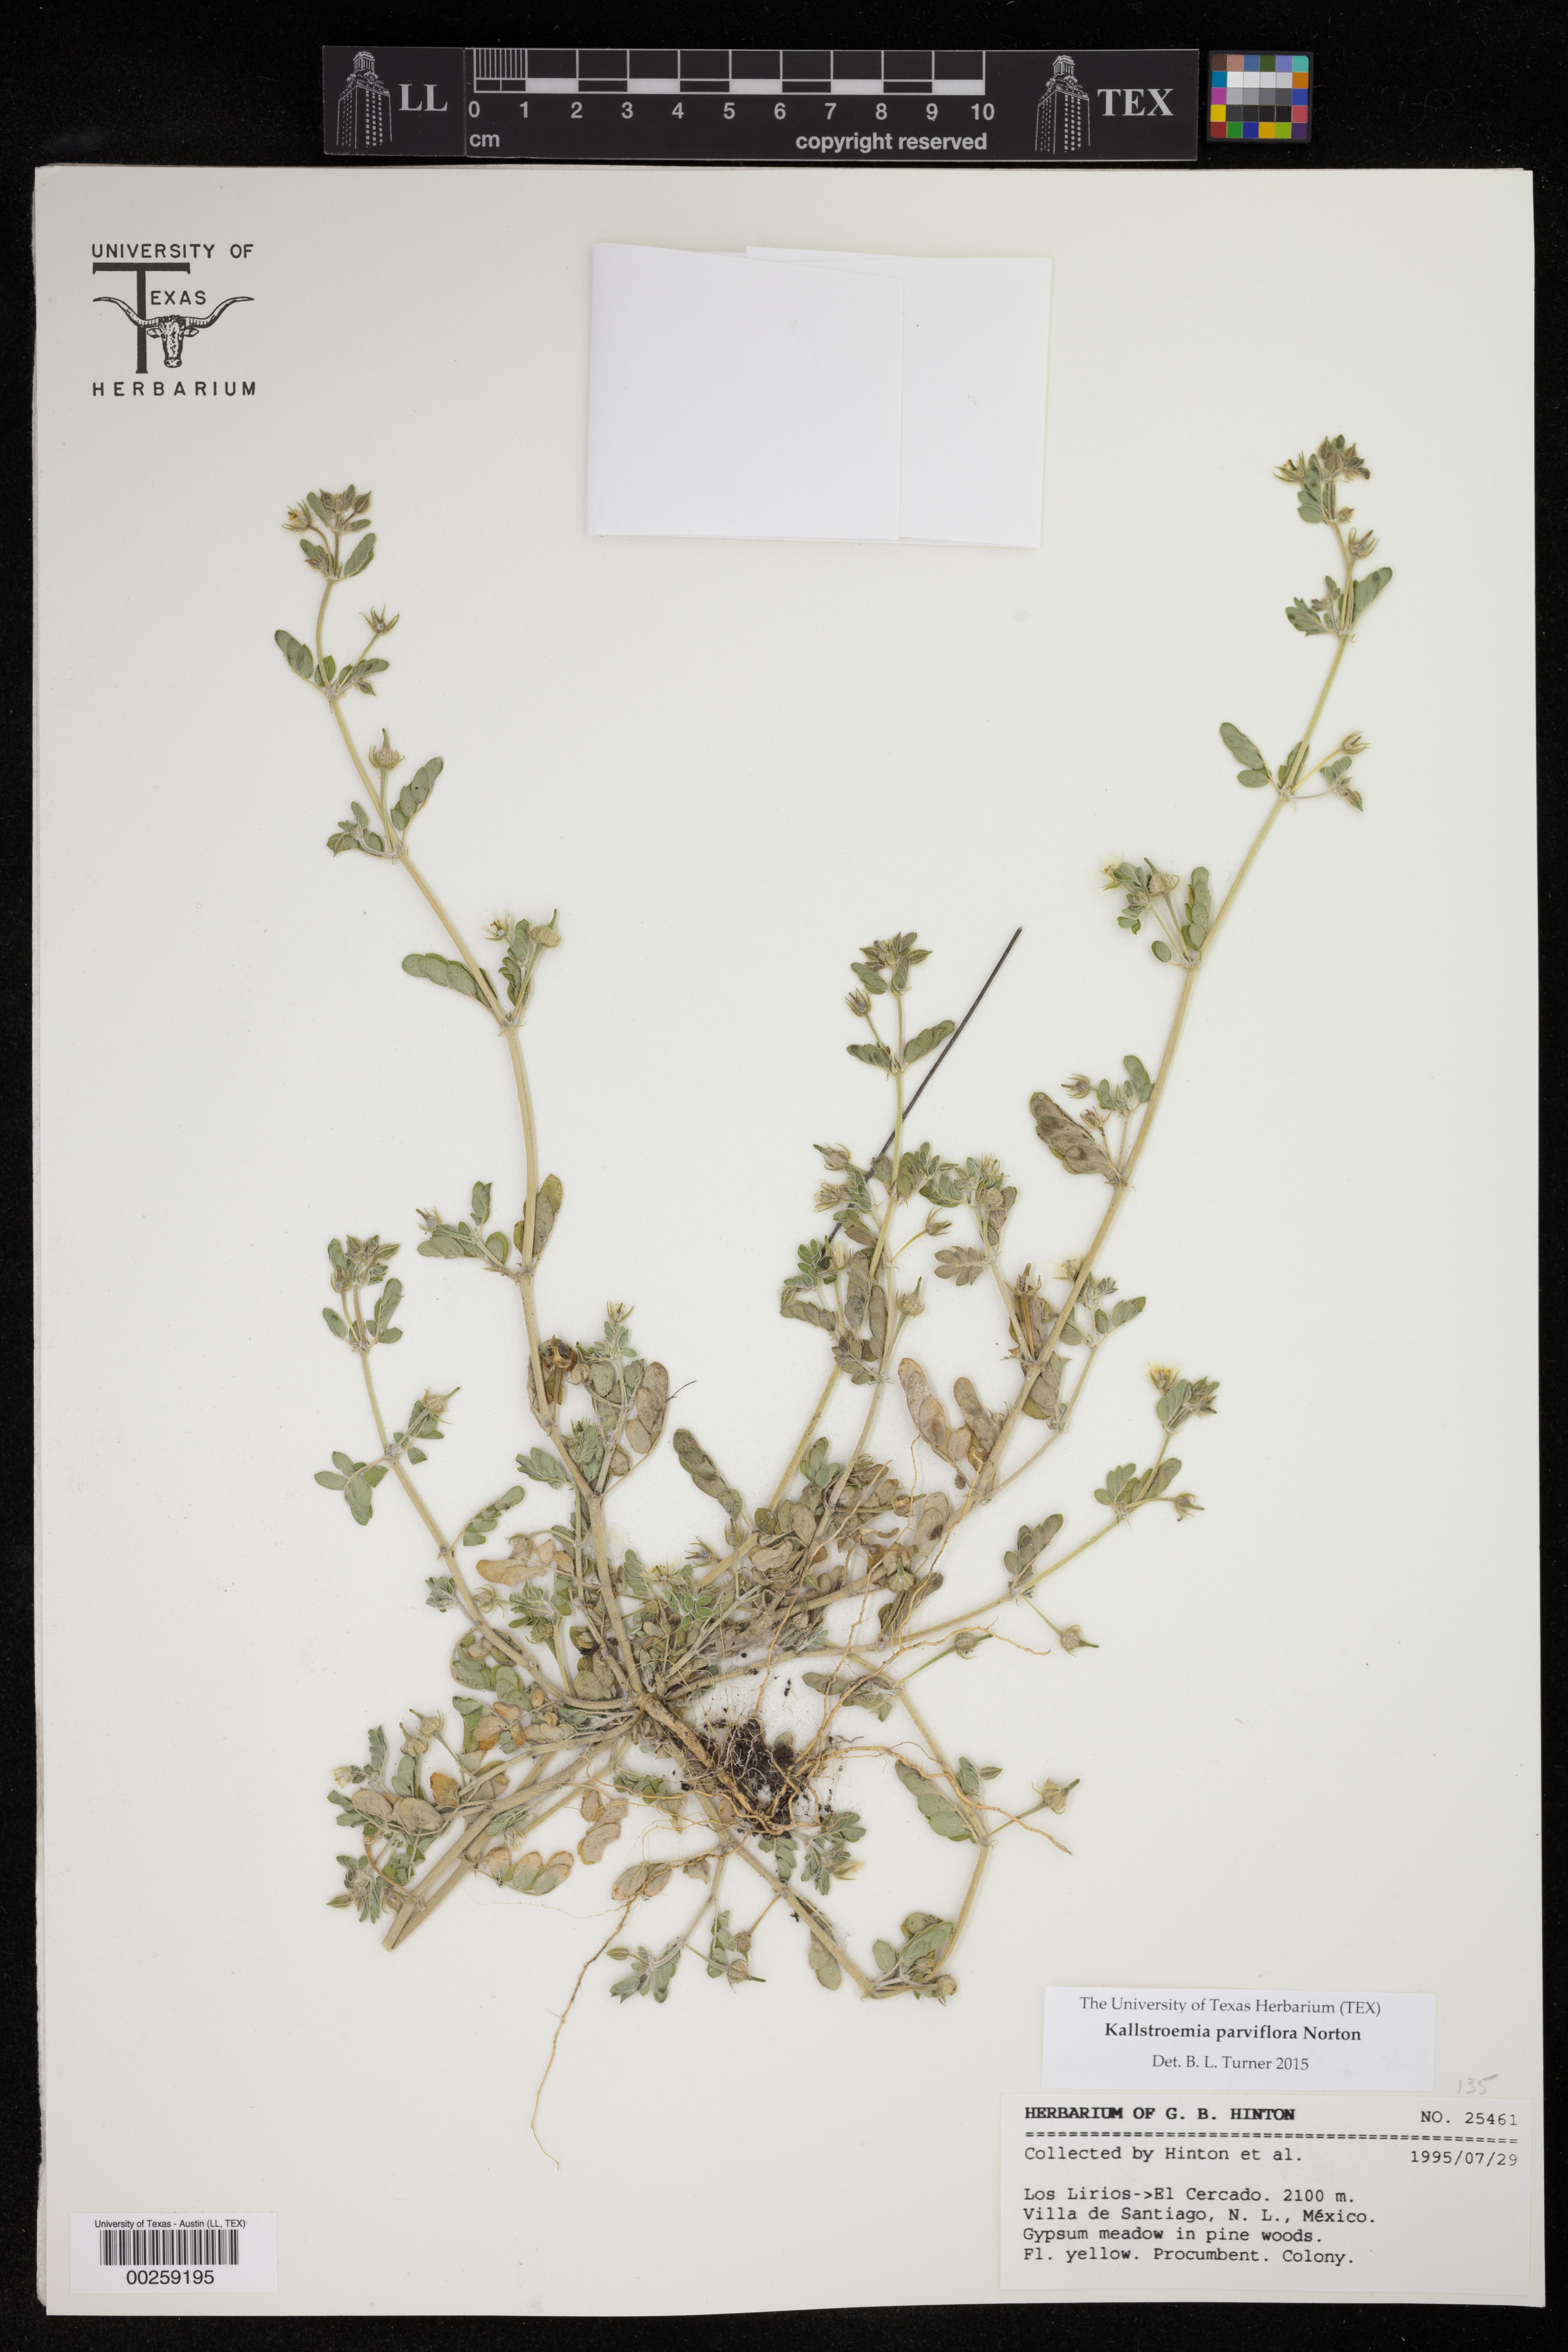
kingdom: Plantae
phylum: Tracheophyta
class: Magnoliopsida
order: Zygophyllales
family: Zygophyllaceae
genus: Kallstroemia
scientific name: Kallstroemia grandiflora
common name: Arizona-poppy
